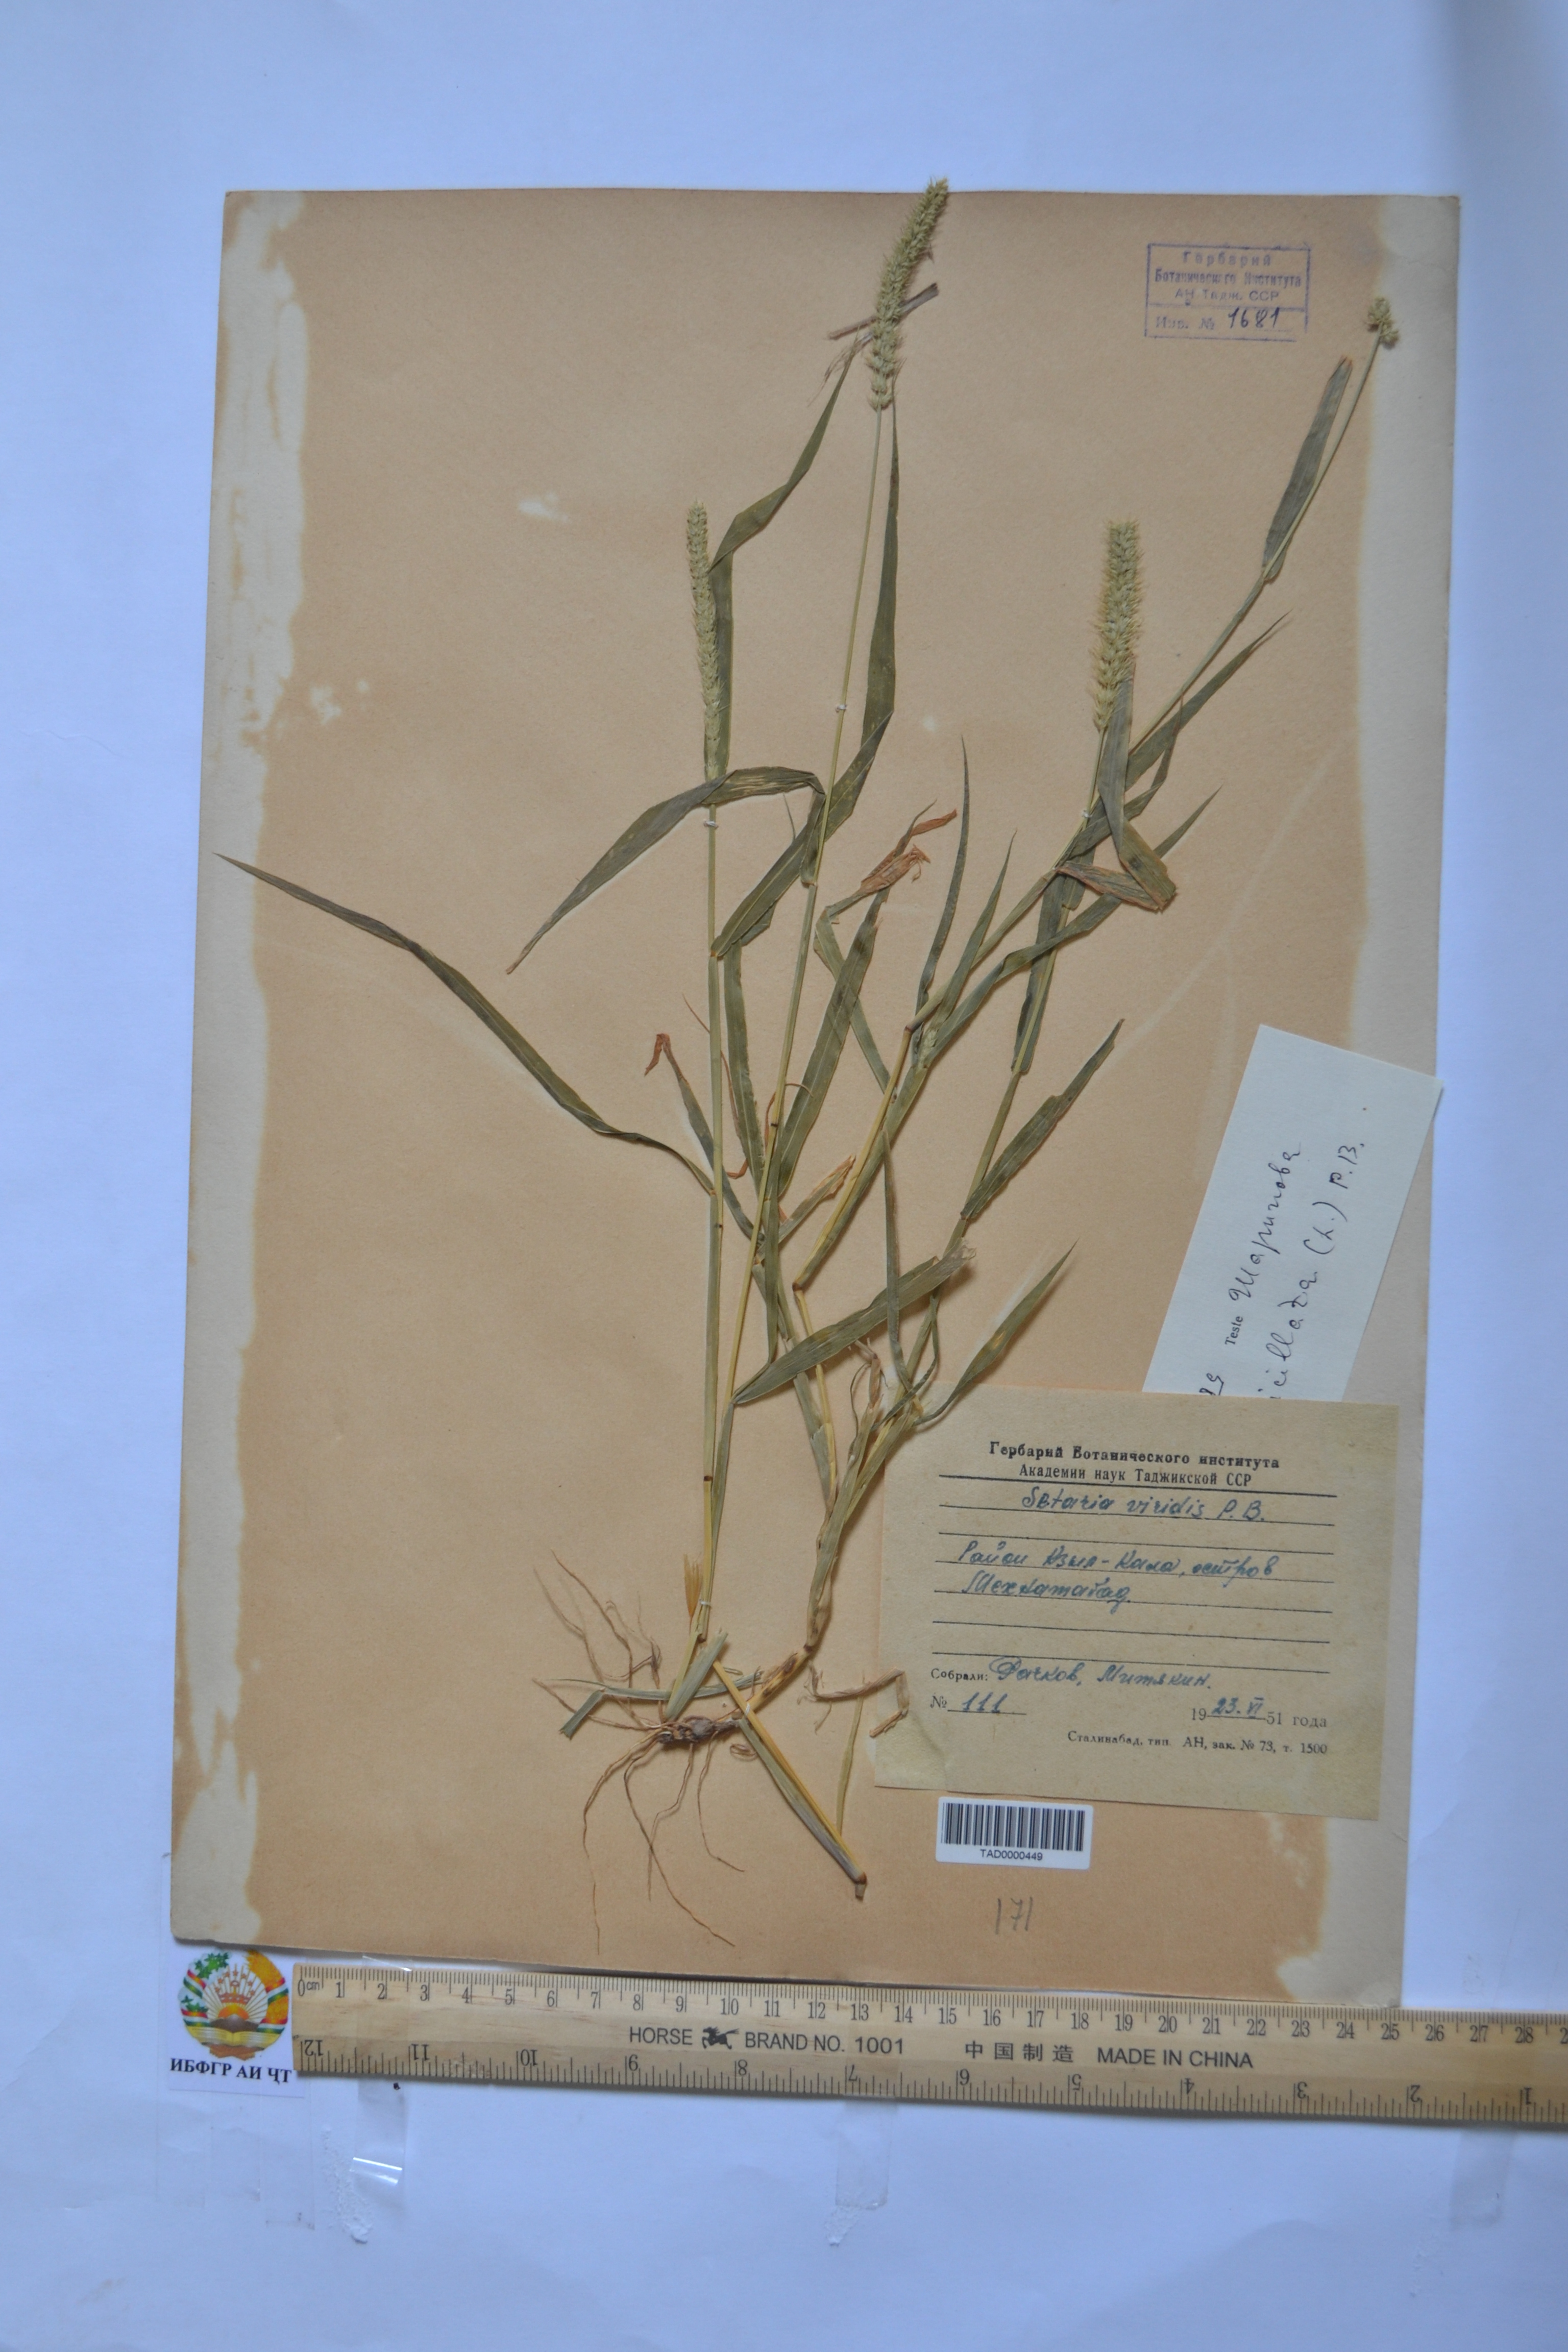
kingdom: Plantae
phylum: Tracheophyta
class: Liliopsida
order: Poales
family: Poaceae
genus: Setaria
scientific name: Setaria verticillata
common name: Hooked bristlegrass
